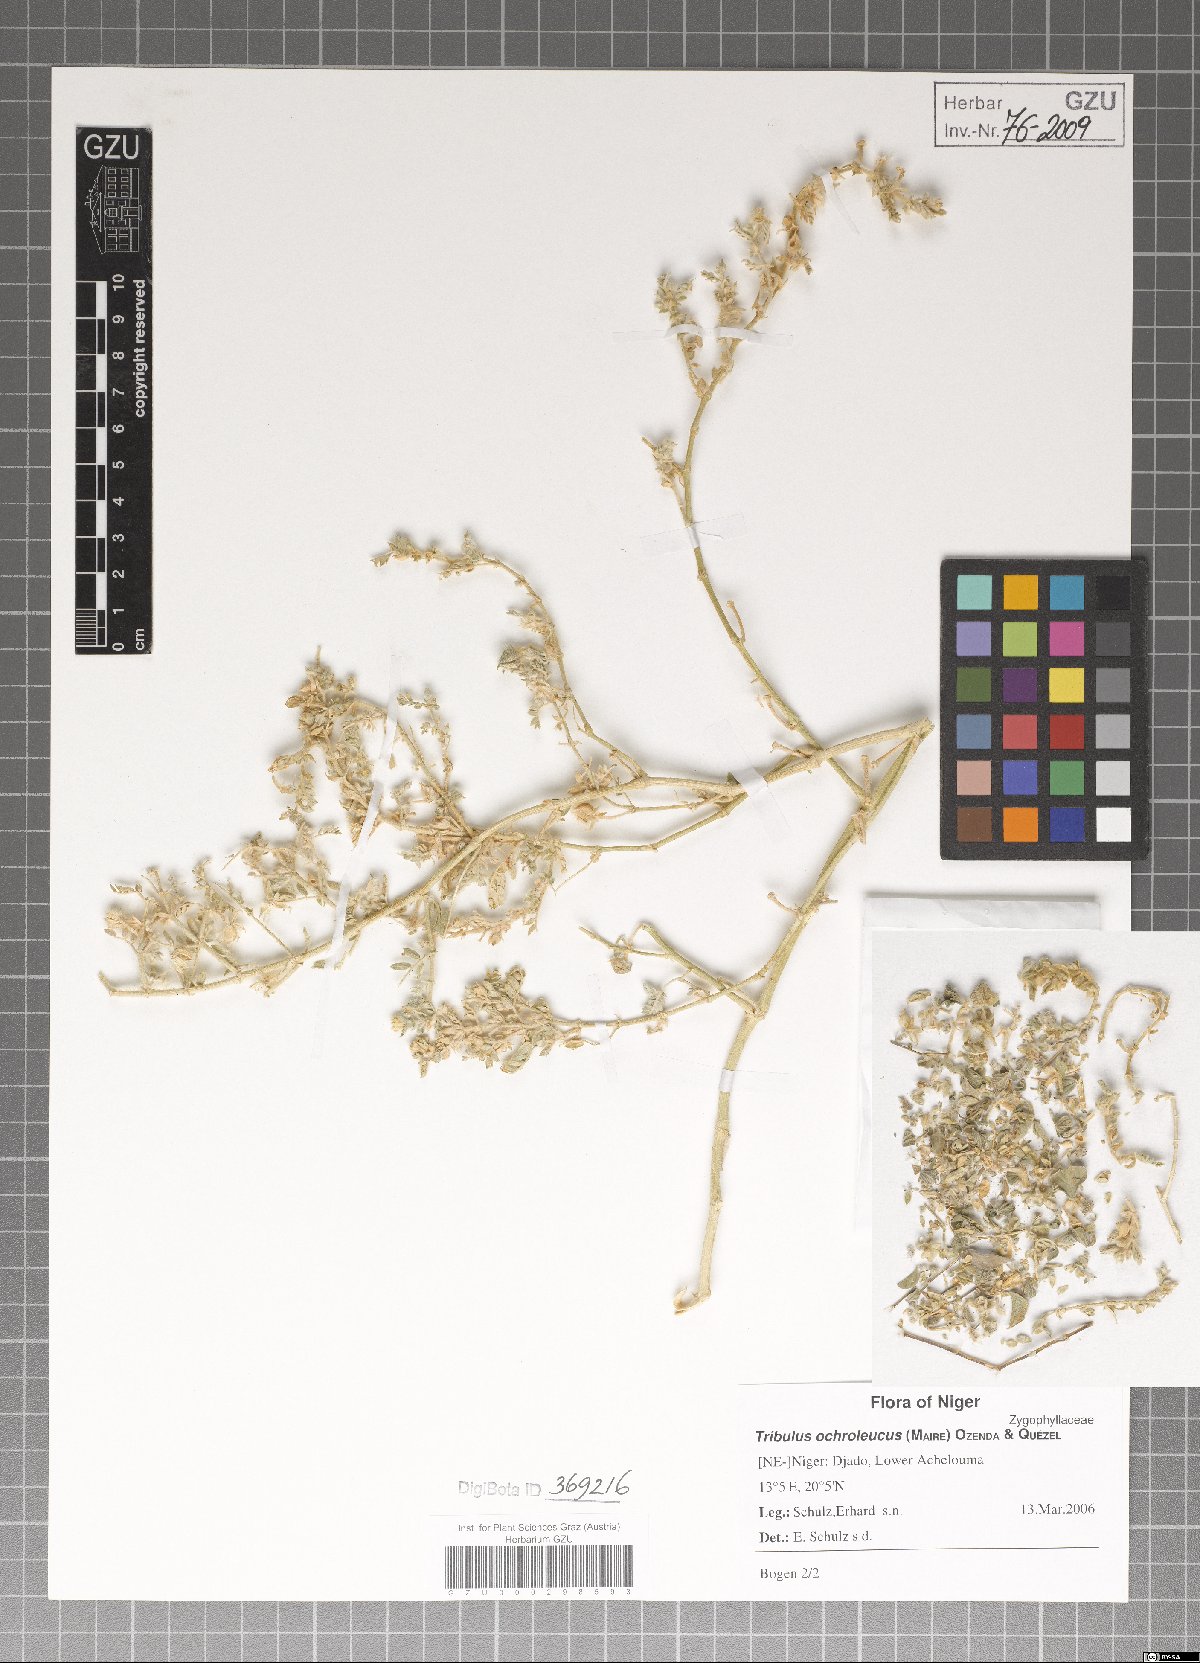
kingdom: Plantae
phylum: Tracheophyta
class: Magnoliopsida
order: Zygophyllales
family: Zygophyllaceae
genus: Tribulus
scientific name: Tribulus ochroleucus
